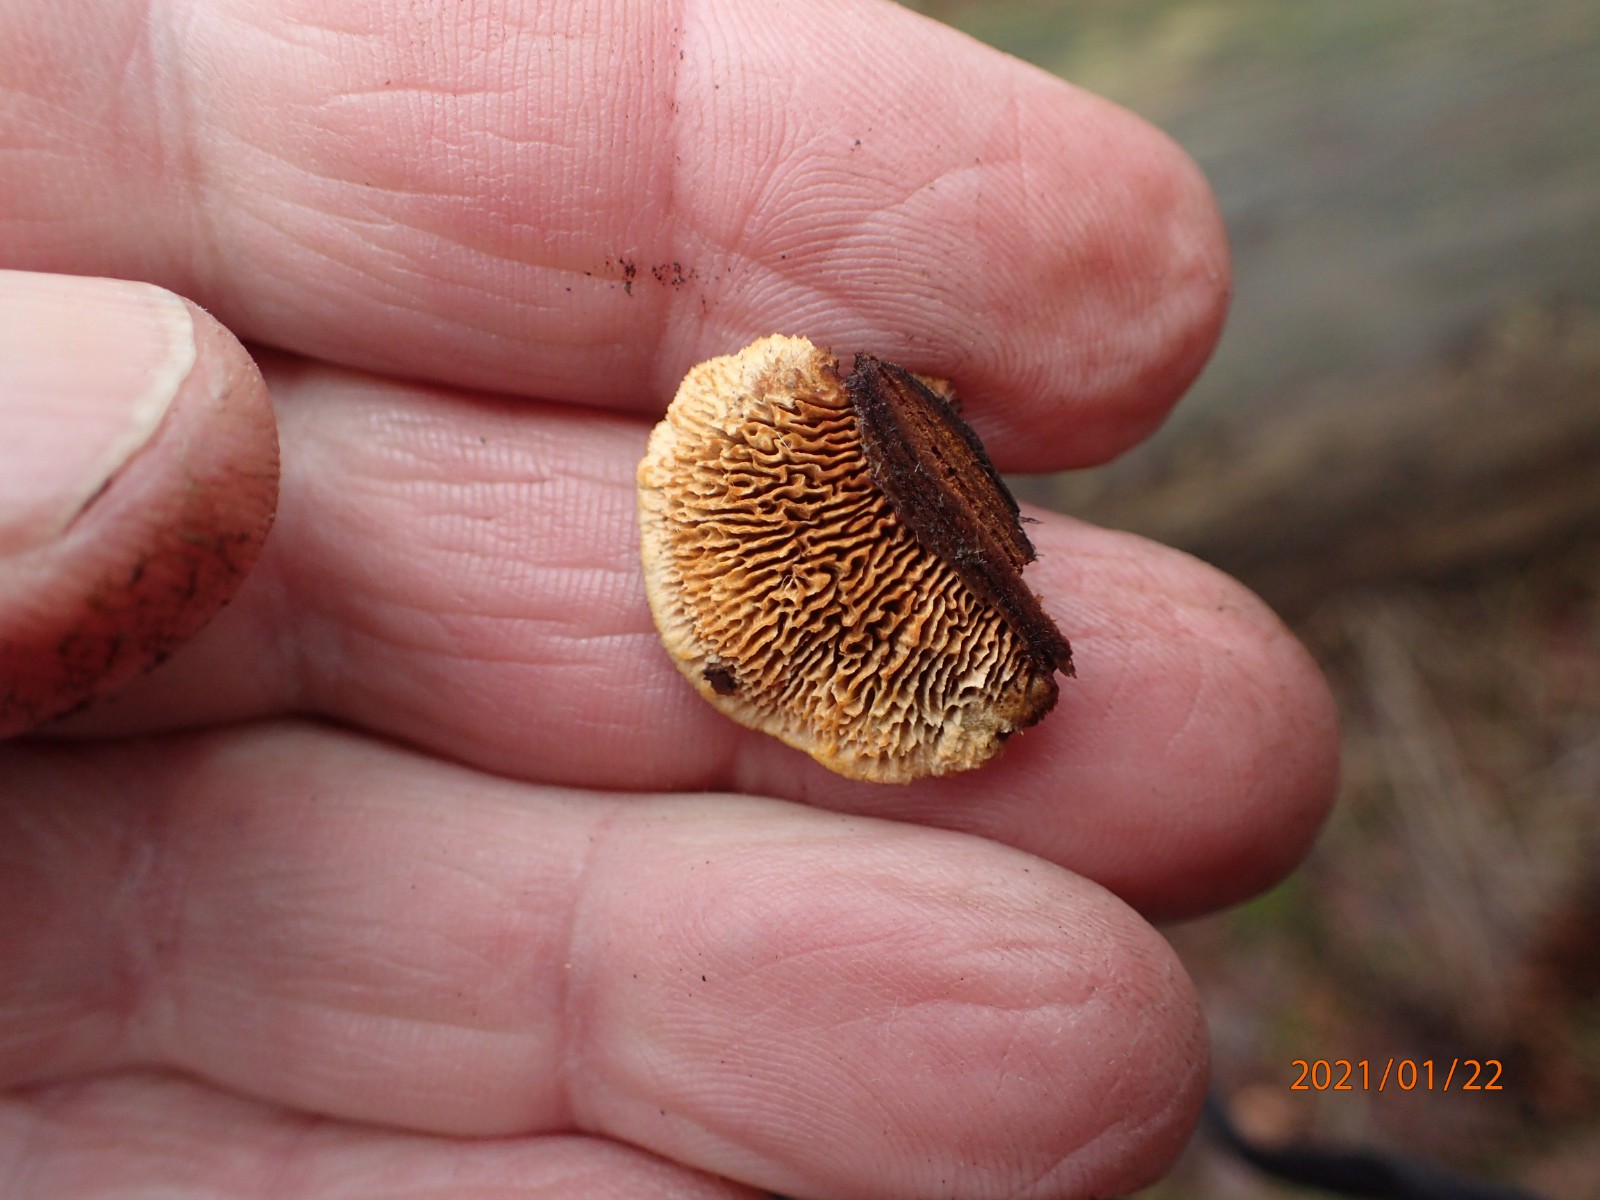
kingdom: Fungi
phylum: Basidiomycota
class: Agaricomycetes
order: Gloeophyllales
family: Gloeophyllaceae
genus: Gloeophyllum
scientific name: Gloeophyllum sepiarium
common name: fyrre-korkhat
